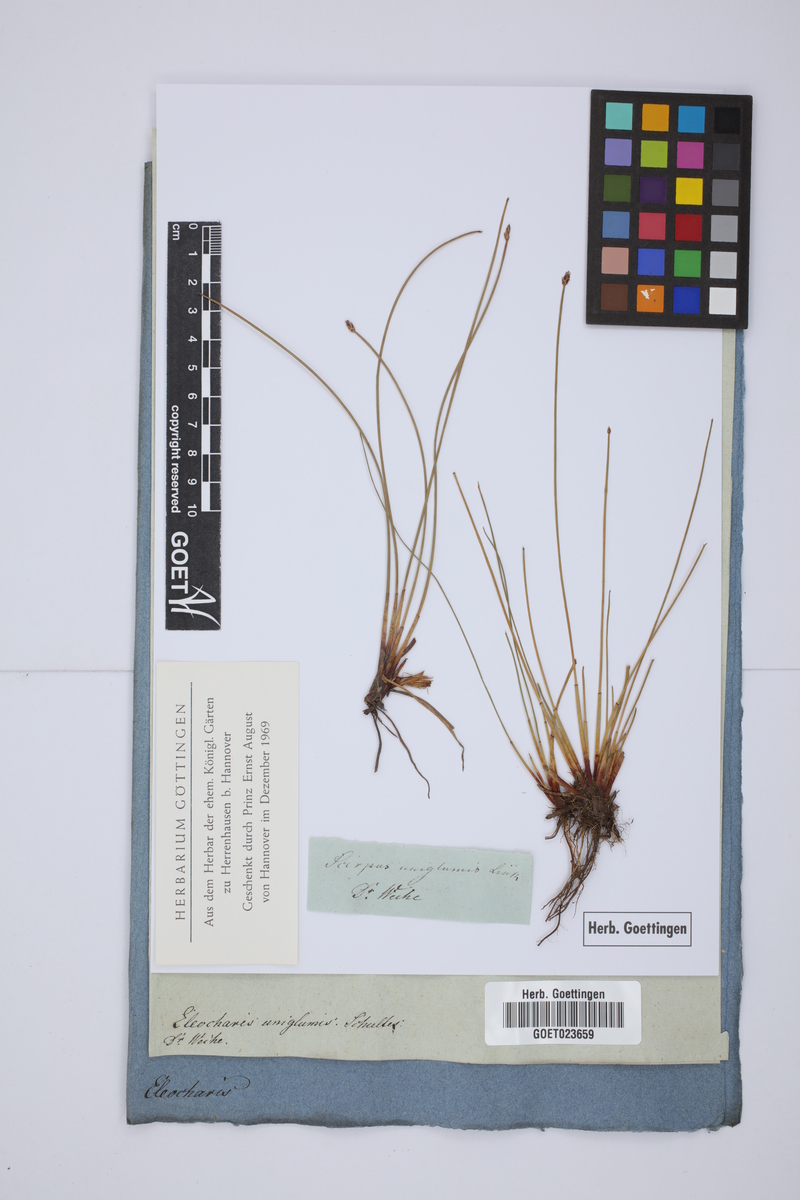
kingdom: Plantae
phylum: Tracheophyta
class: Liliopsida
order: Poales
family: Cyperaceae
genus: Eleocharis
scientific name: Eleocharis uniglumis
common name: Slender spike-rush
